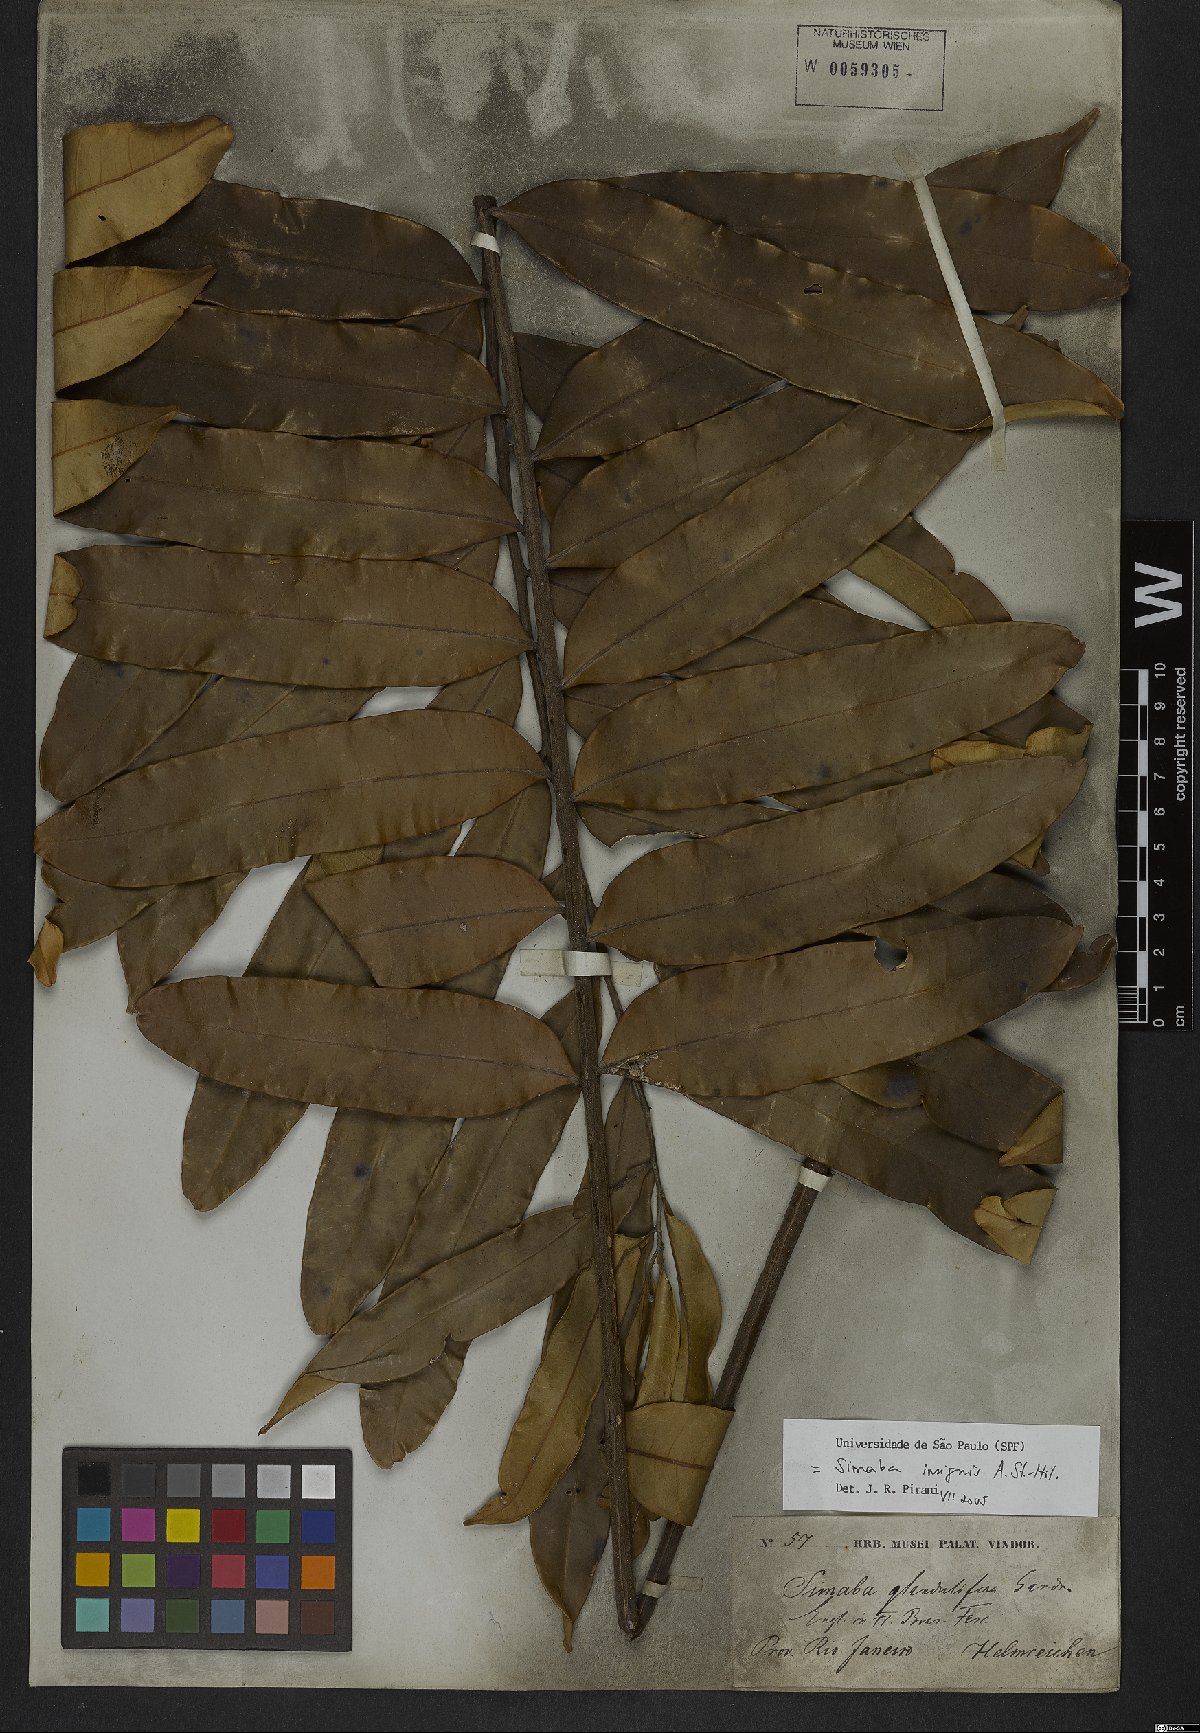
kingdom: Plantae
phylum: Tracheophyta
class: Magnoliopsida
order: Sapindales
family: Simaroubaceae
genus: Homalolepis
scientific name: Homalolepis insignis
